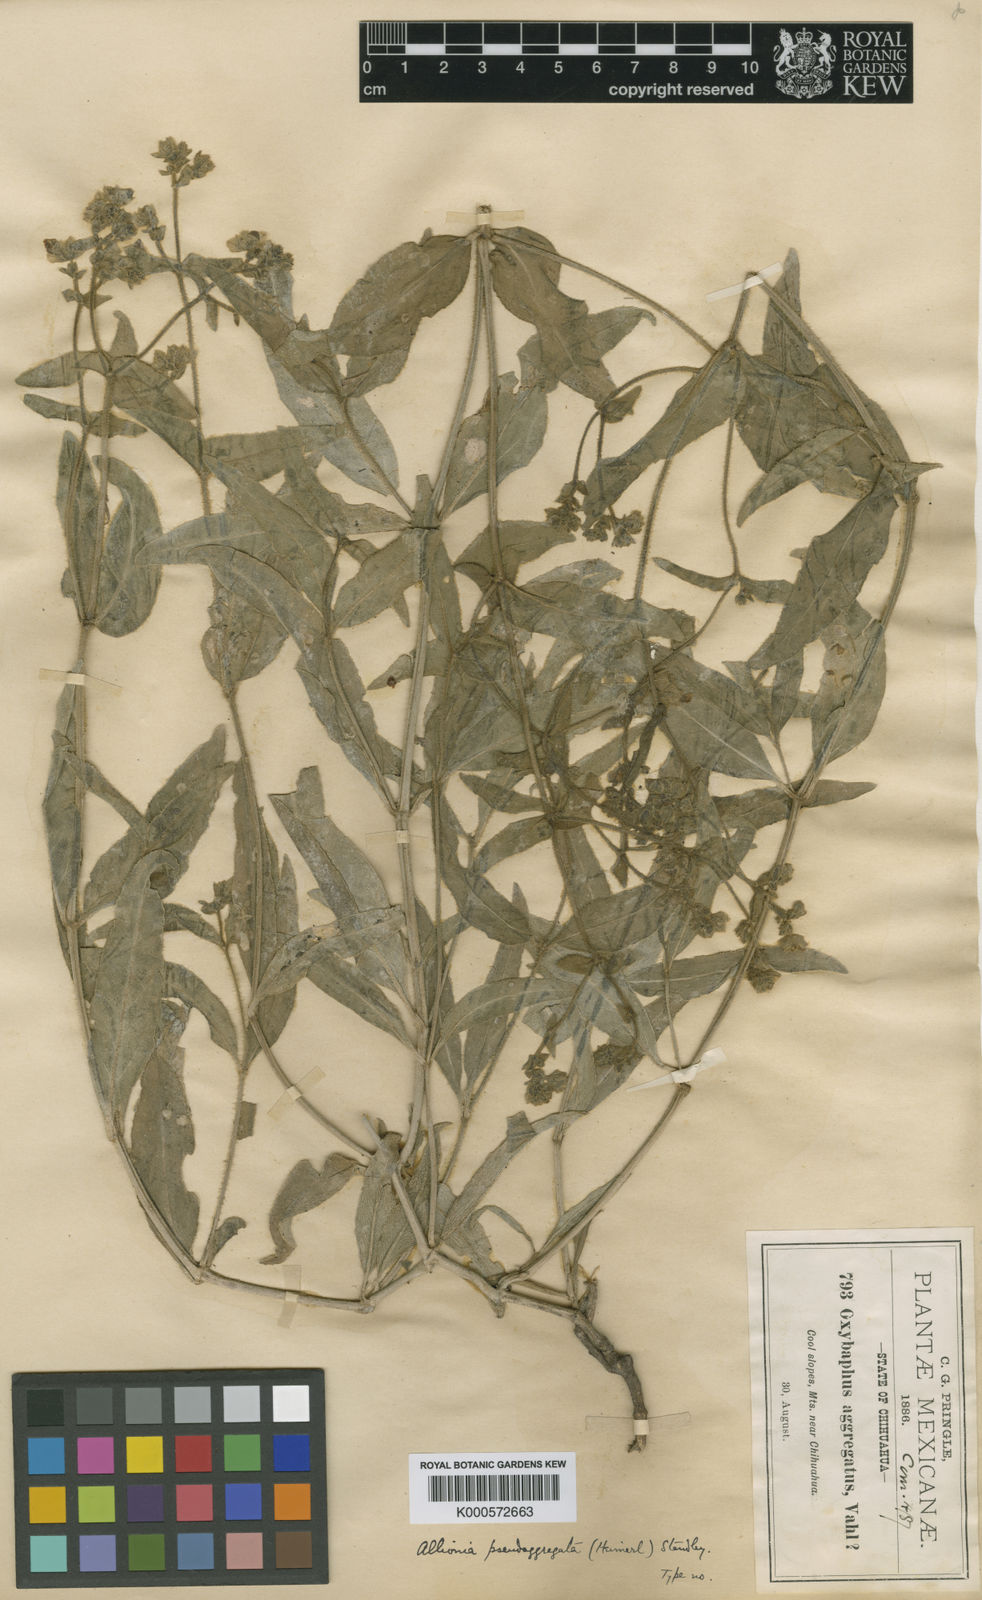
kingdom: Plantae
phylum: Tracheophyta
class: Magnoliopsida
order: Caryophyllales
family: Nyctaginaceae
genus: Mirabilis
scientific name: Mirabilis aggregata
